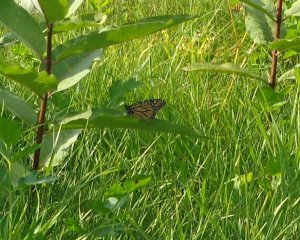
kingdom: Animalia
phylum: Arthropoda
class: Insecta
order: Lepidoptera
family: Nymphalidae
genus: Danaus
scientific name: Danaus plexippus
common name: Monarch
